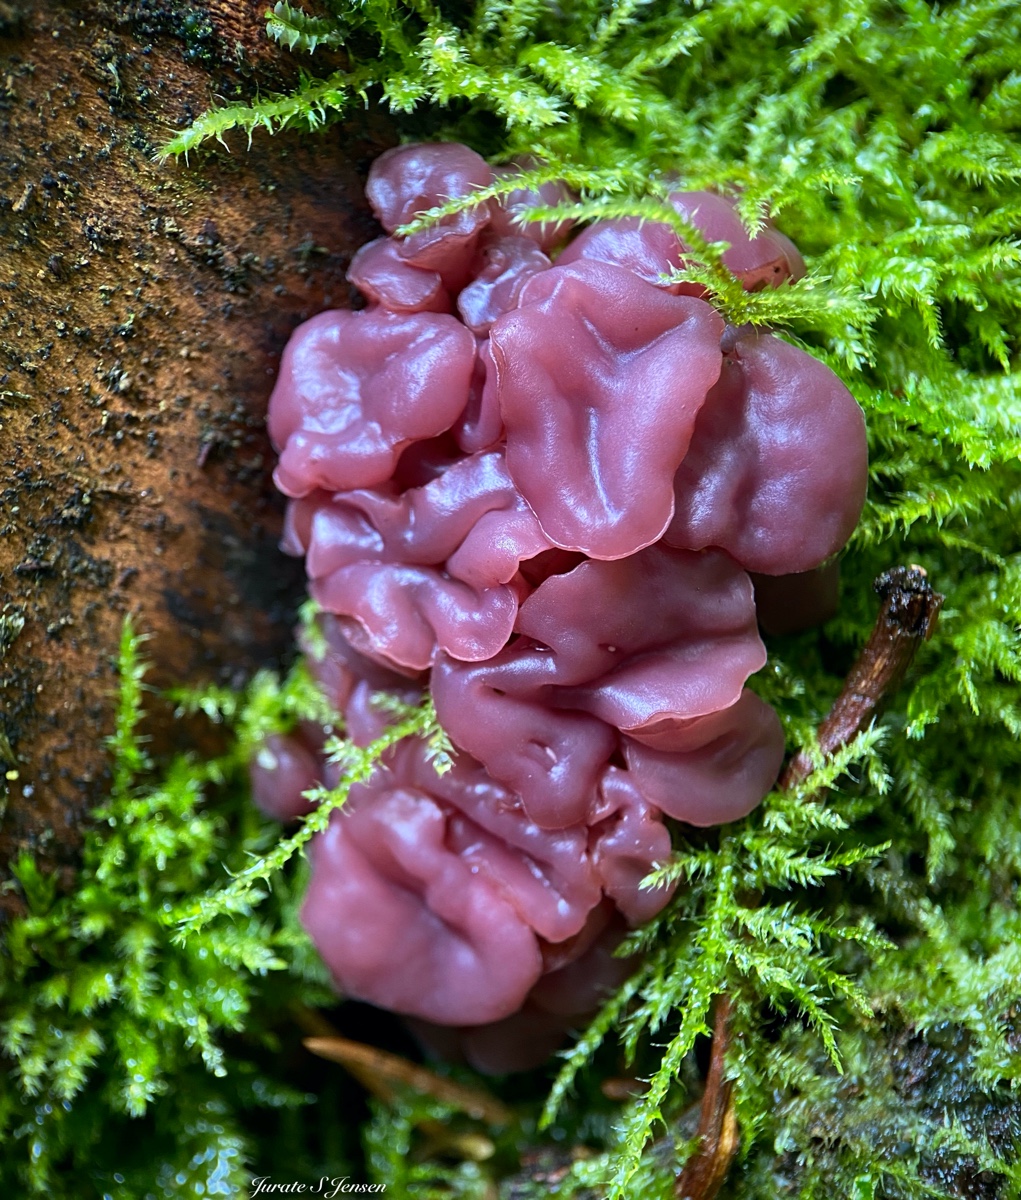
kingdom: Fungi
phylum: Ascomycota
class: Leotiomycetes
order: Helotiales
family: Gelatinodiscaceae
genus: Ascocoryne
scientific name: Ascocoryne sarcoides
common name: rødlilla sejskive
